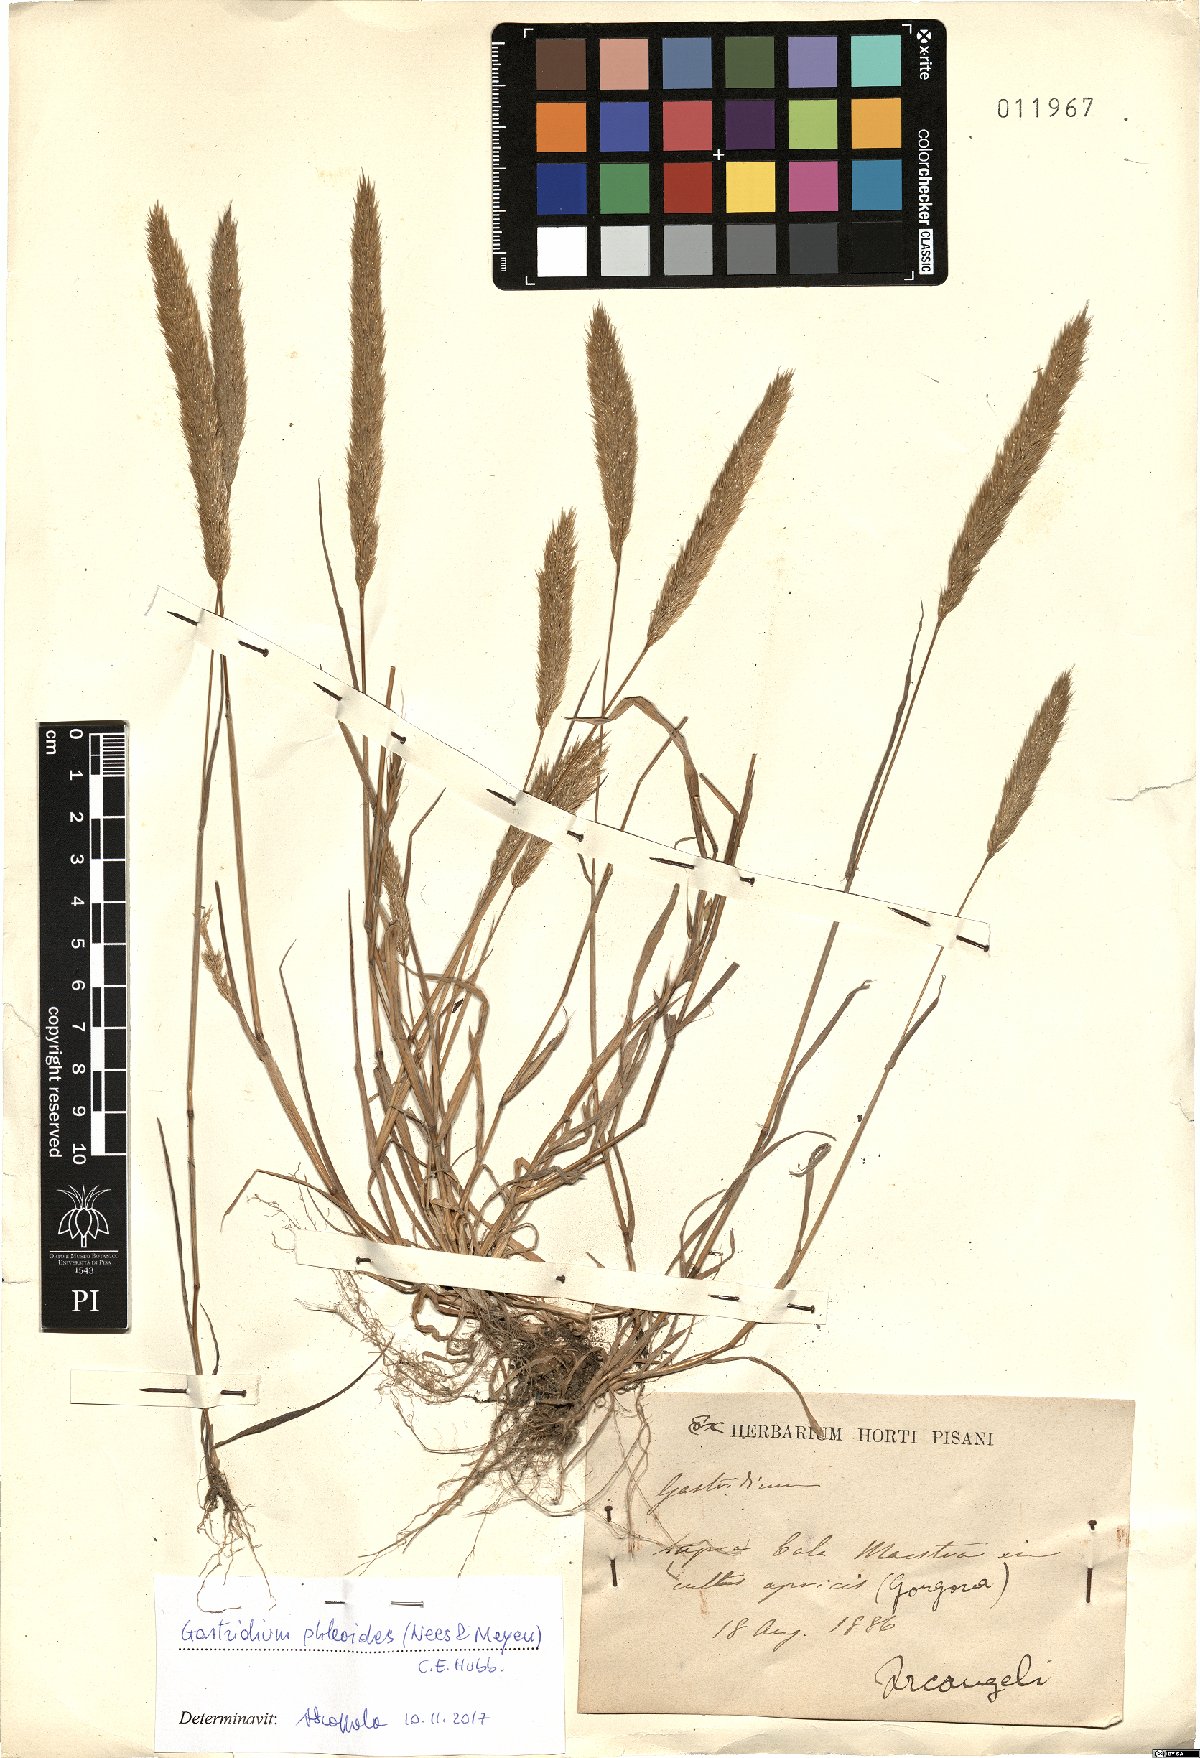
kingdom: Plantae
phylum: Tracheophyta
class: Liliopsida
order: Poales
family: Poaceae
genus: Gastridium
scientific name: Gastridium phleoides
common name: Nit grass
